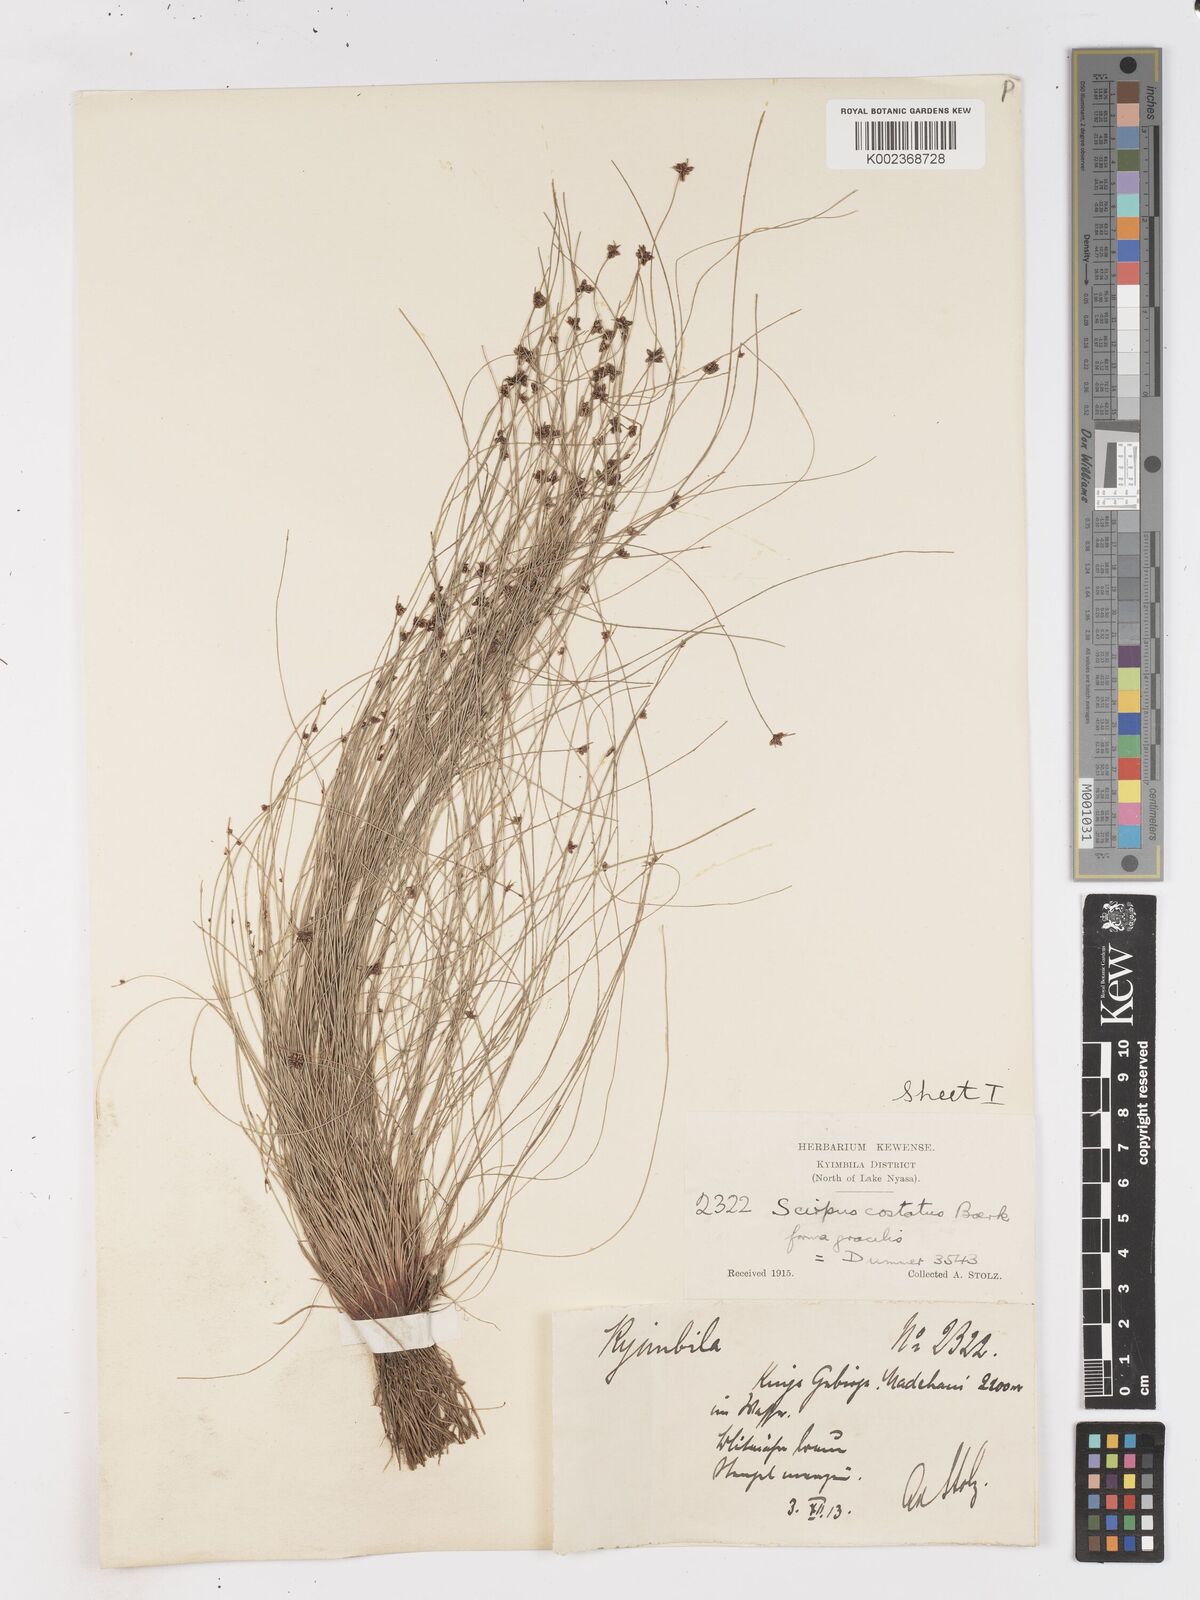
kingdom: Plantae
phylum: Tracheophyta
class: Liliopsida
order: Poales
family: Cyperaceae
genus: Isolepis
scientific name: Isolepis costata
